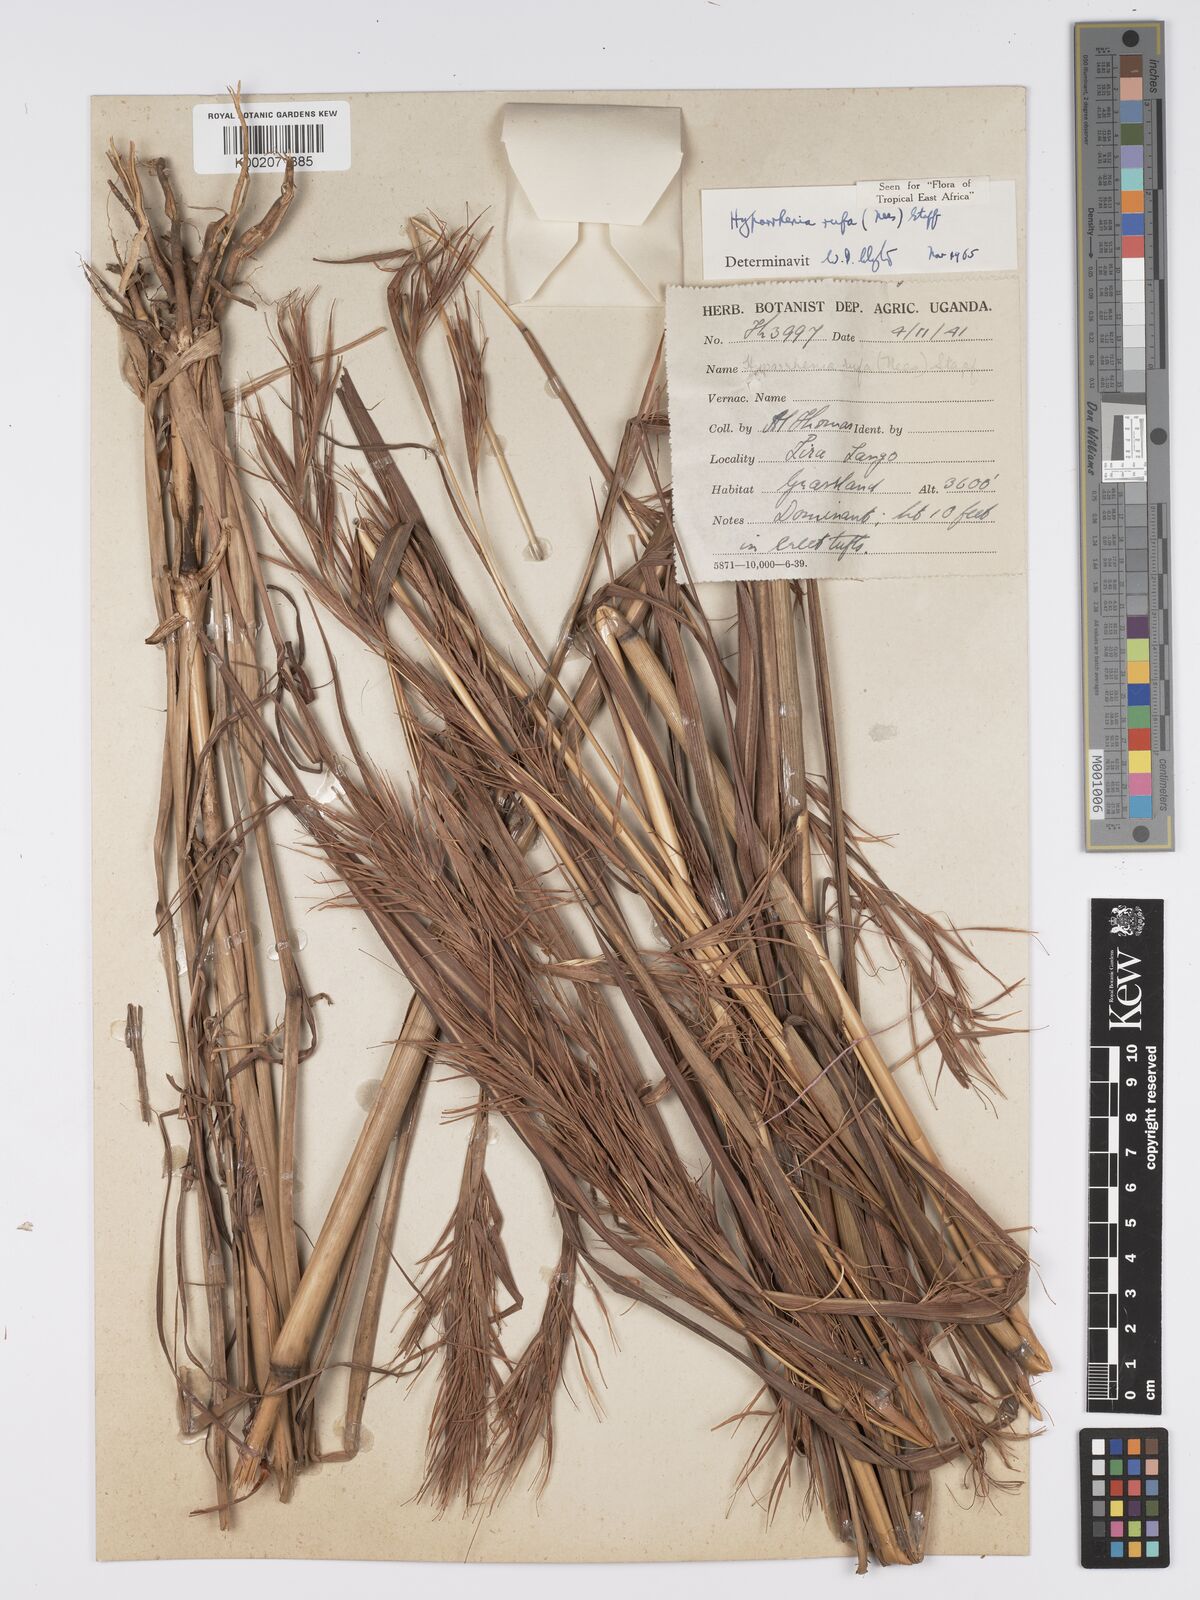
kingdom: Plantae
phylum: Tracheophyta
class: Liliopsida
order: Poales
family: Poaceae
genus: Hyparrhenia
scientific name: Hyparrhenia rufa
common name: Jaraguagrass
